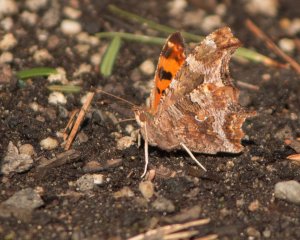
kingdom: Animalia
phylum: Arthropoda
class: Insecta
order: Lepidoptera
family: Nymphalidae
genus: Polygonia
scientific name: Polygonia comma
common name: Eastern Comma
